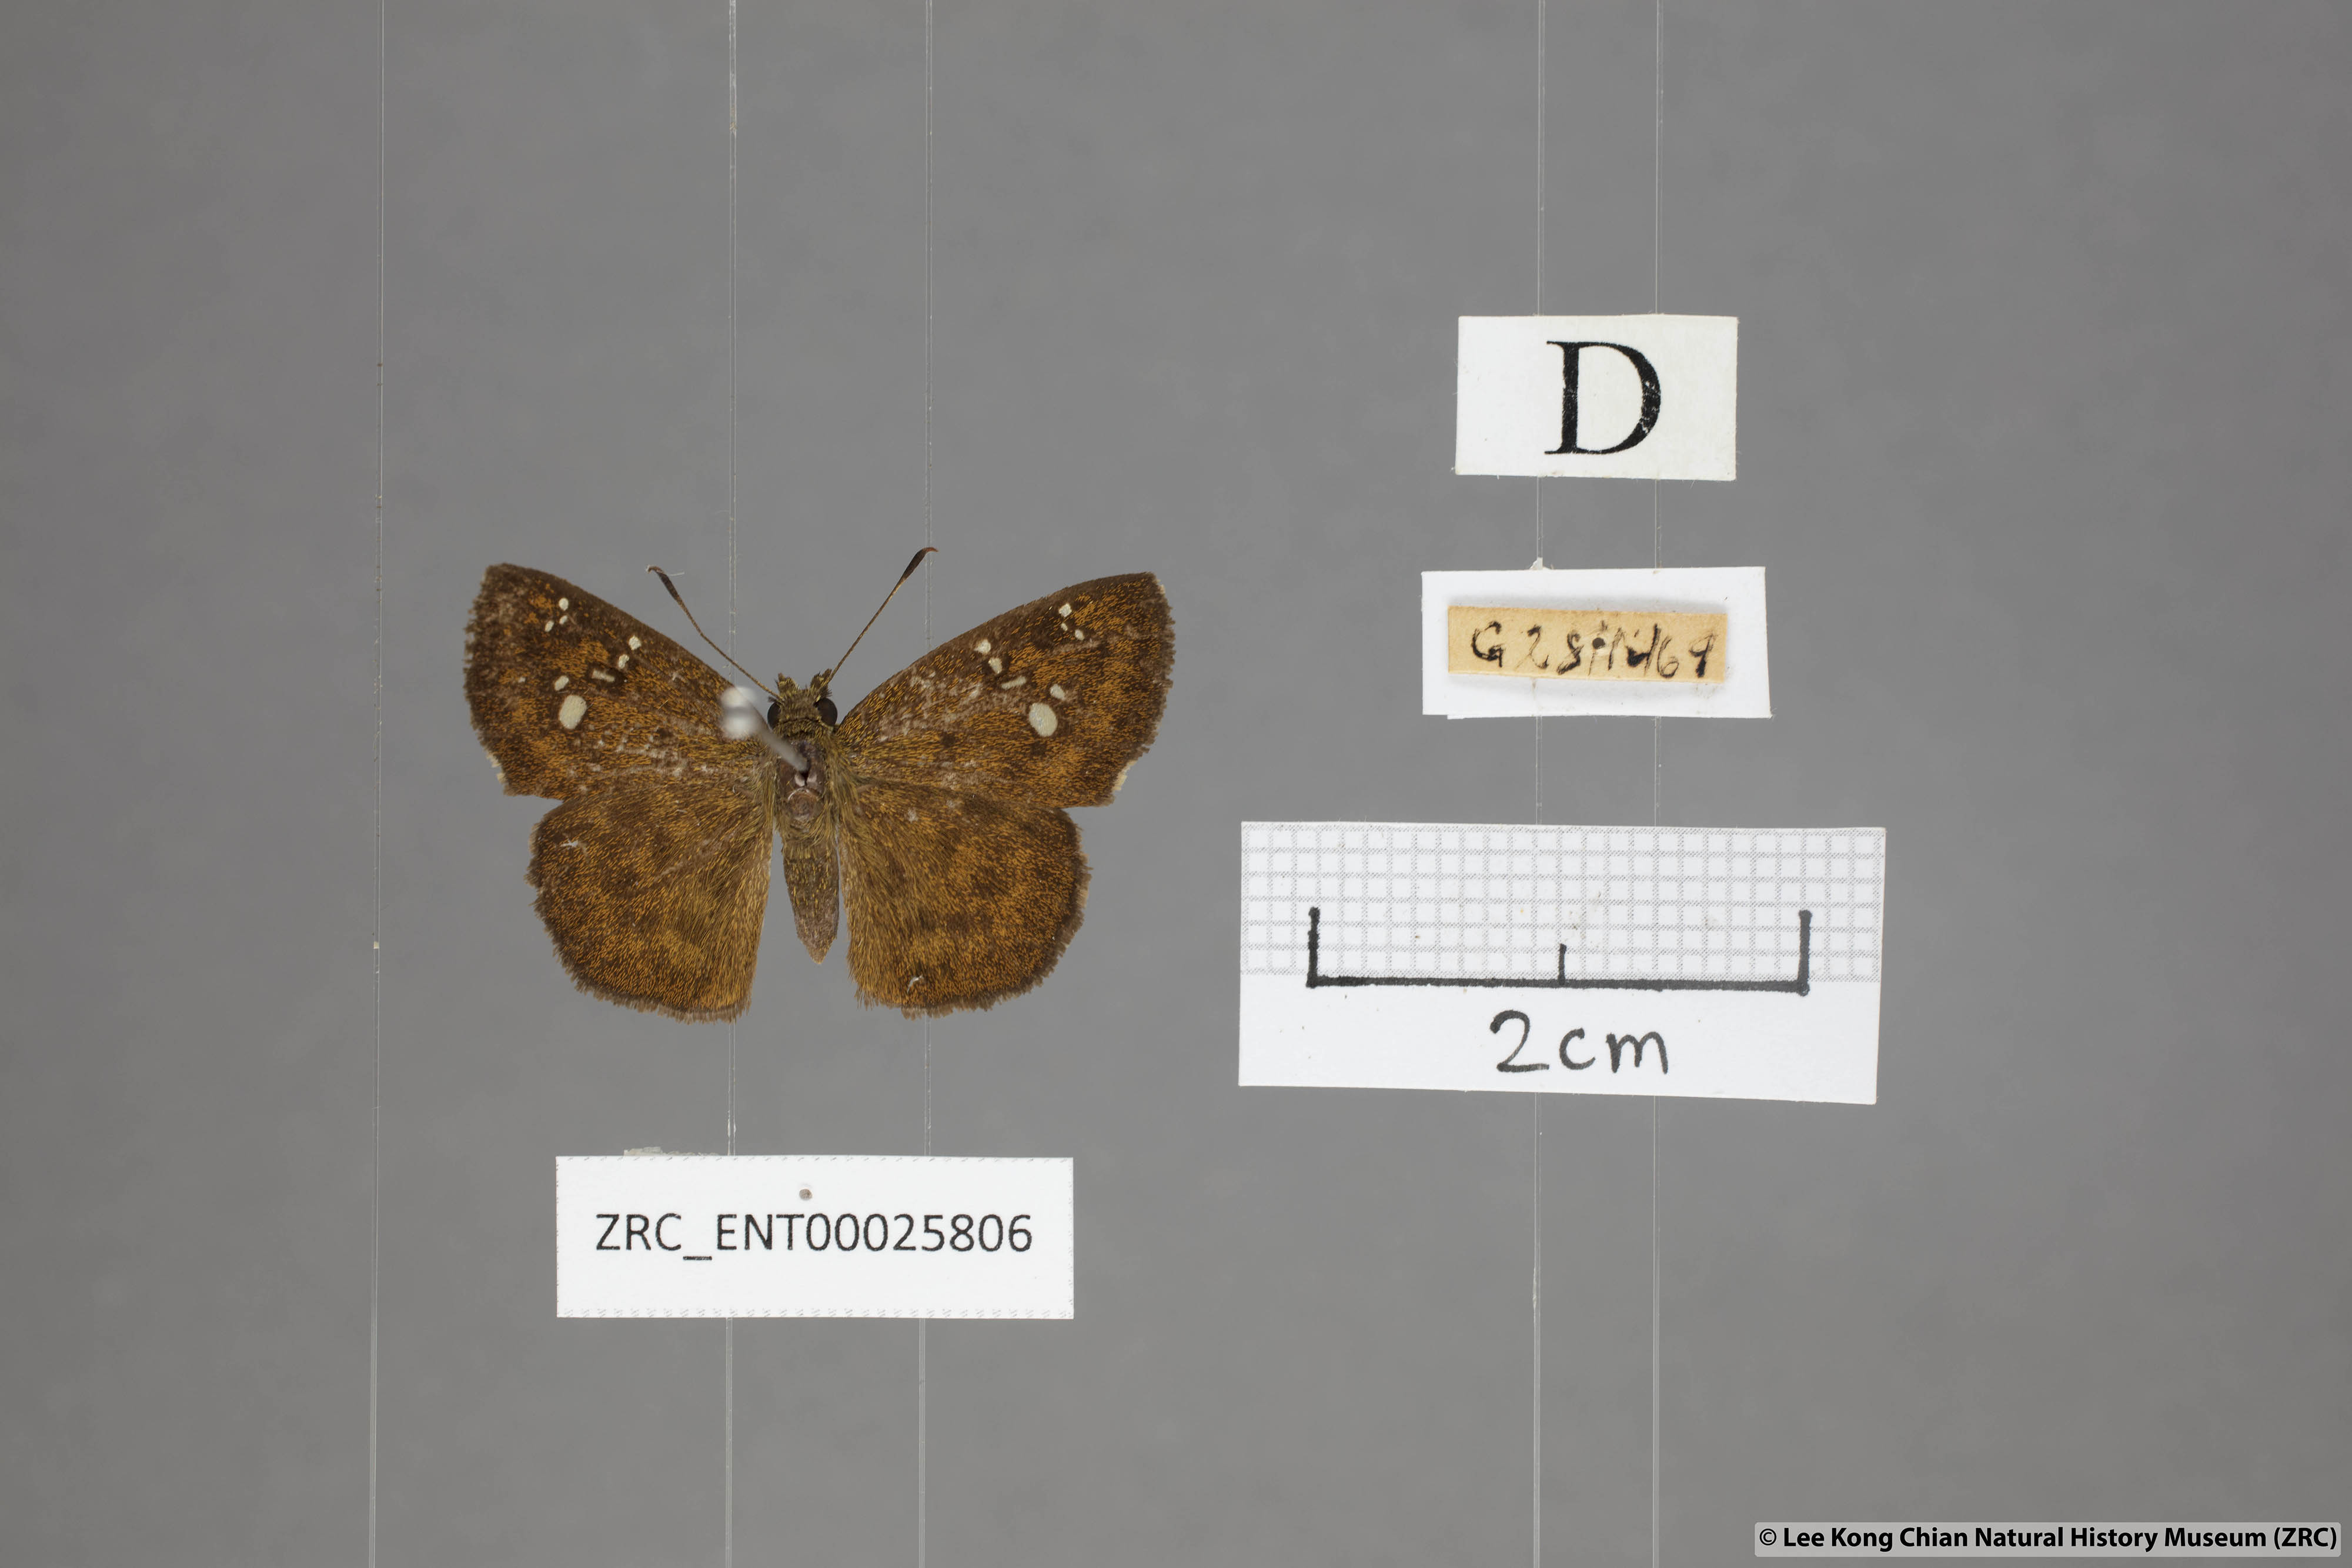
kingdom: Animalia
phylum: Arthropoda
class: Insecta
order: Lepidoptera
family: Hesperiidae
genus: Pseudocoladenia
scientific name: Pseudocoladenia dan
